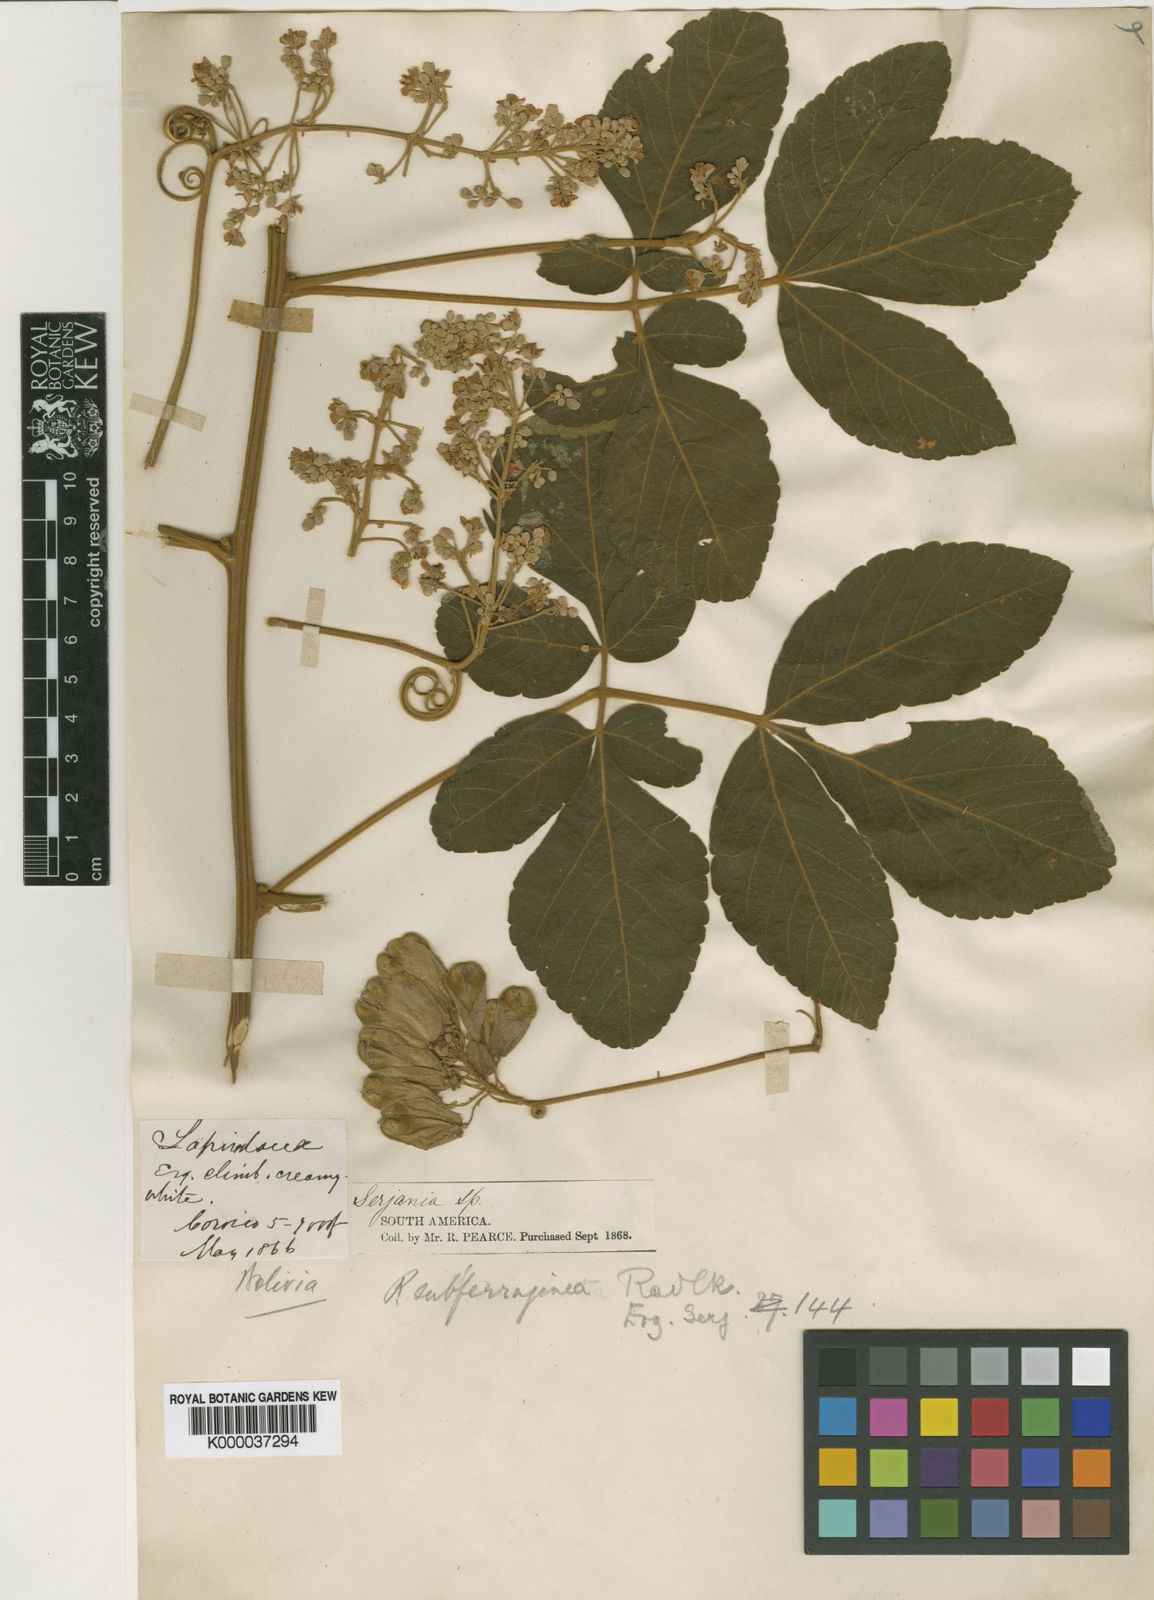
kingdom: Plantae
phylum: Tracheophyta
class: Magnoliopsida
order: Sapindales
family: Sapindaceae
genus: Serjania
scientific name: Serjania sufferruginea
